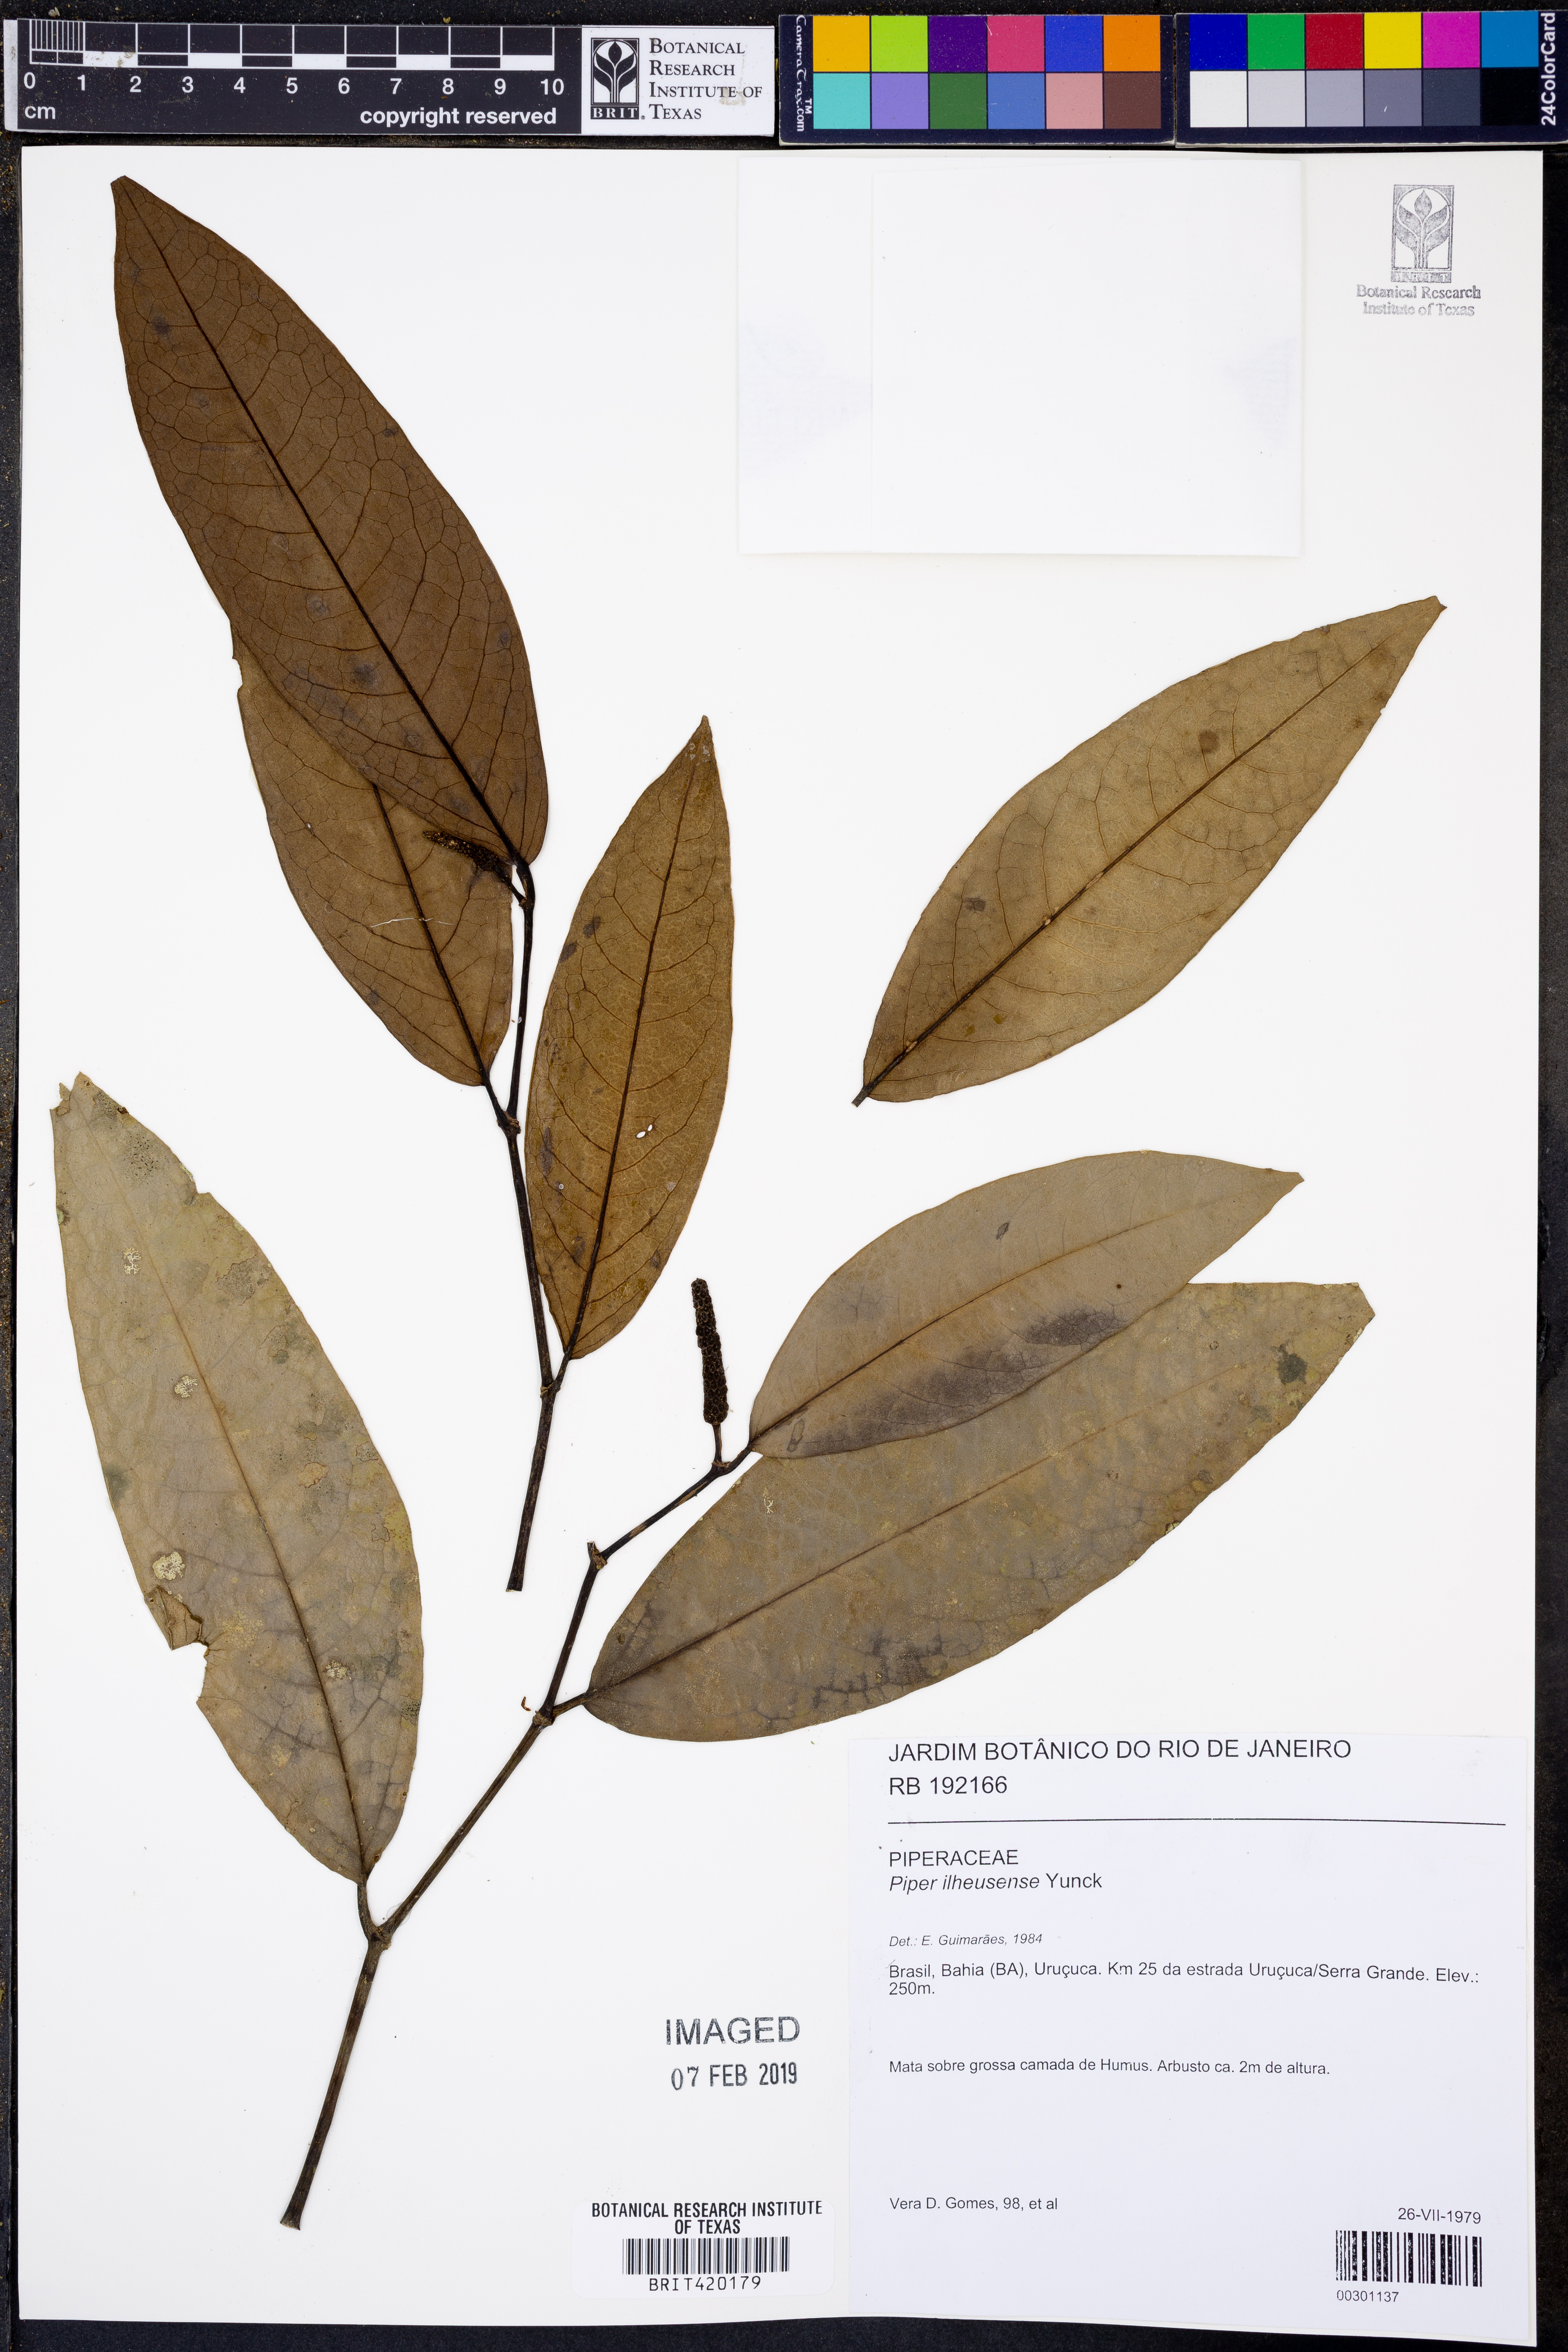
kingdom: Plantae
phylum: Tracheophyta
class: Magnoliopsida
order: Piperales
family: Piperaceae
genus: Piper
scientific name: Piper ilheusense
